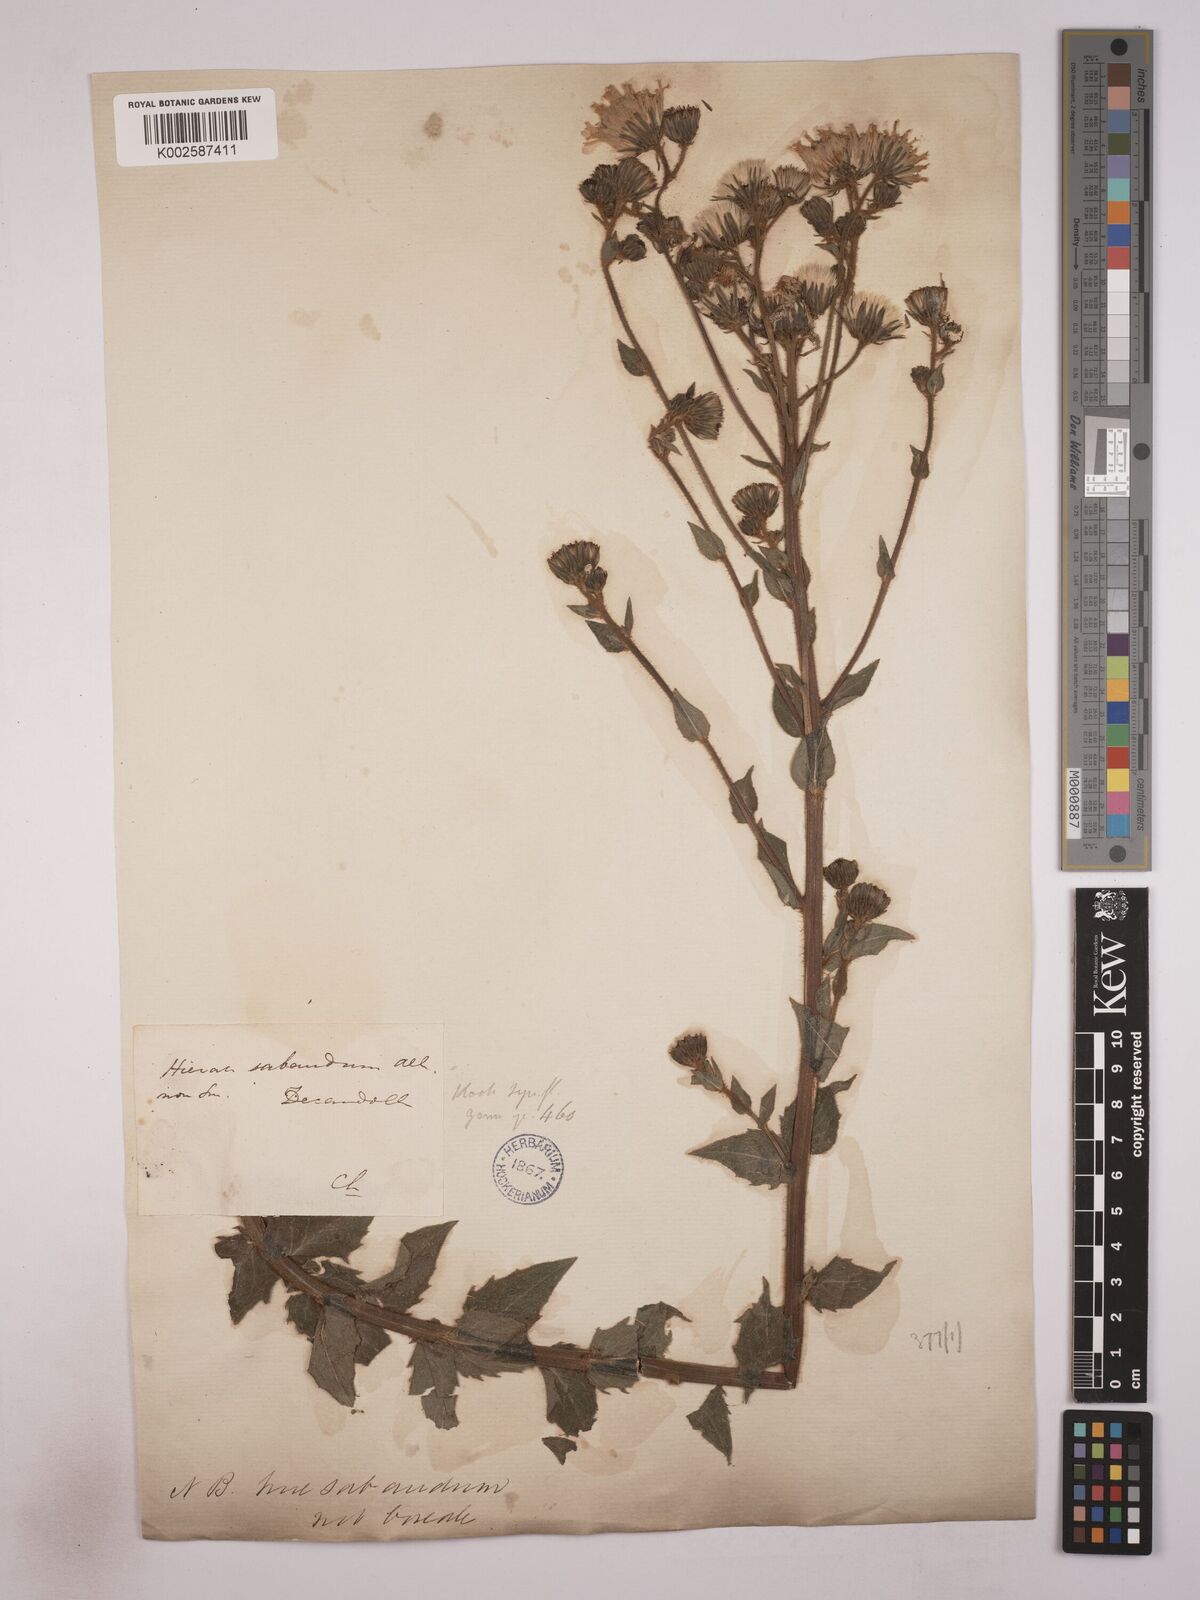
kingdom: Plantae
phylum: Tracheophyta
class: Magnoliopsida
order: Asterales
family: Asteraceae
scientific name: Asteraceae
